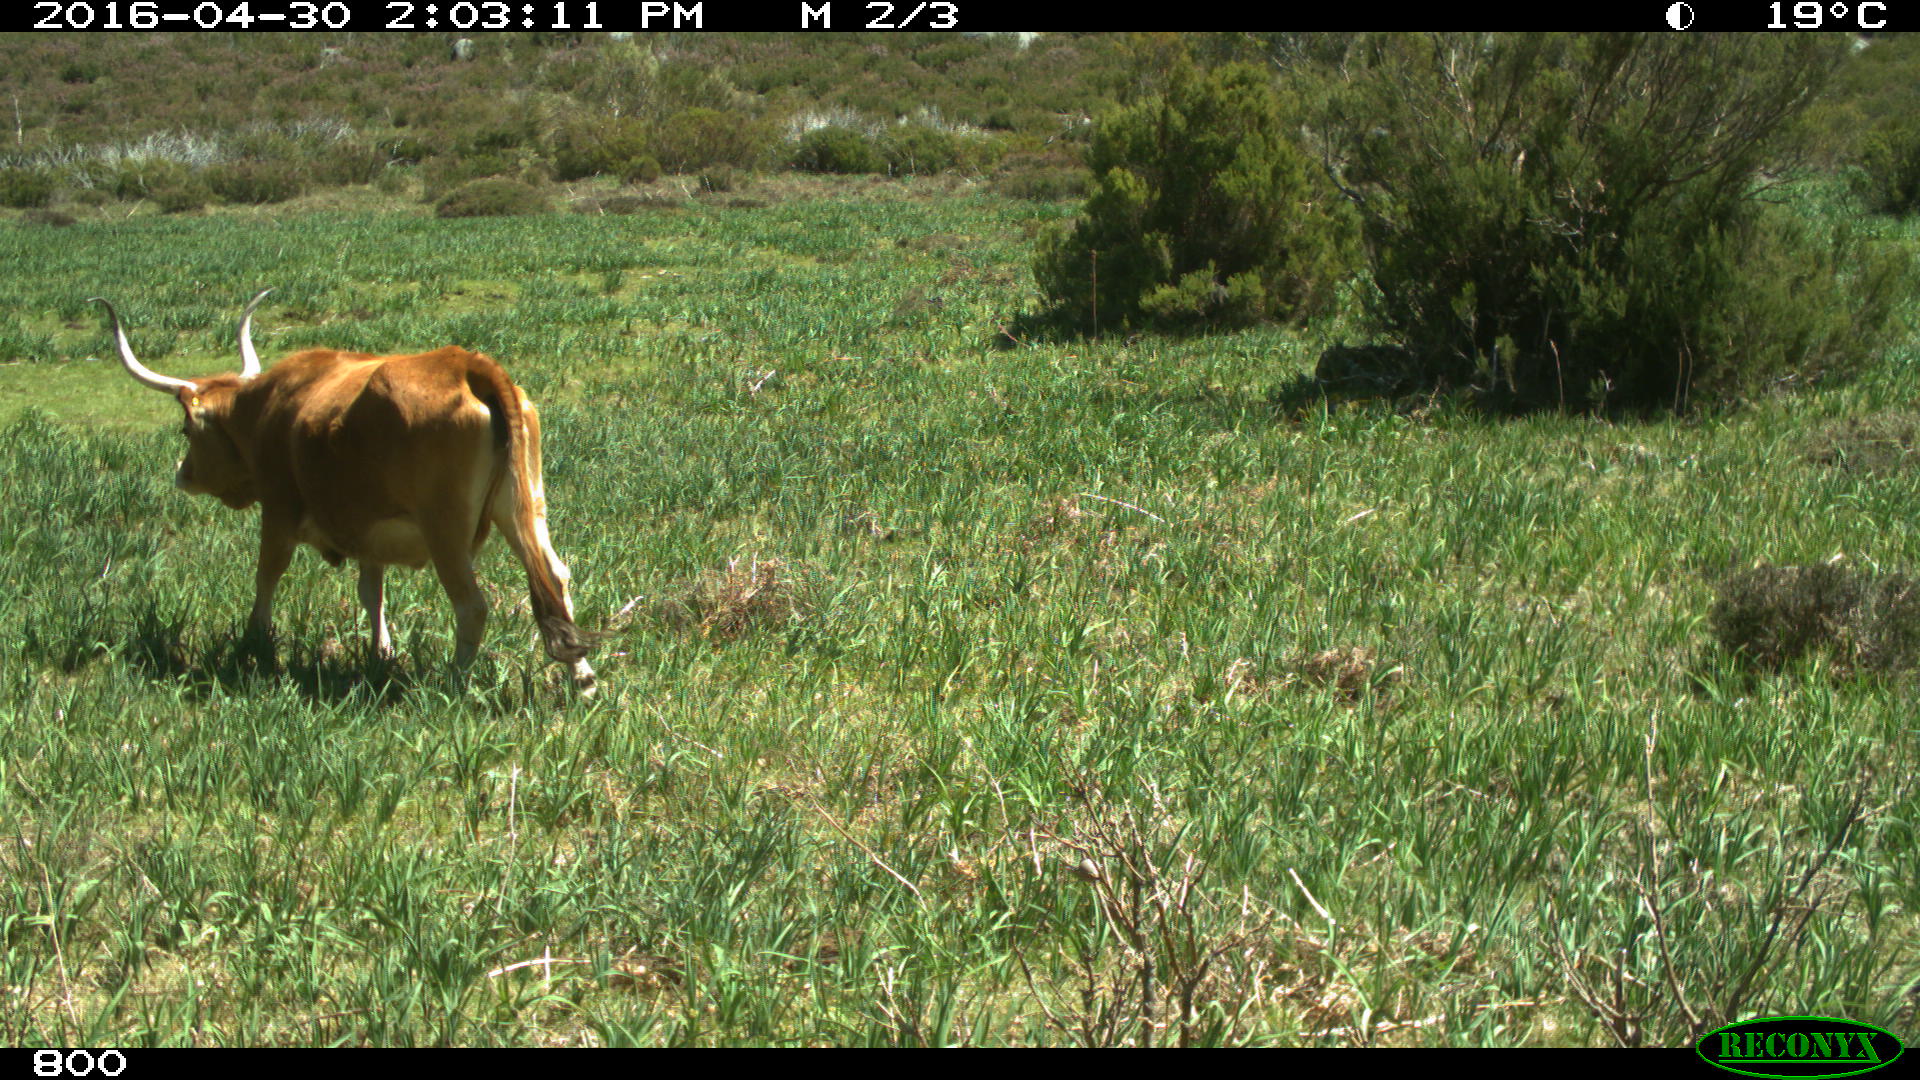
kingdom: Animalia
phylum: Chordata
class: Mammalia
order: Artiodactyla
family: Bovidae
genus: Bos
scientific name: Bos taurus
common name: Domesticated cattle
